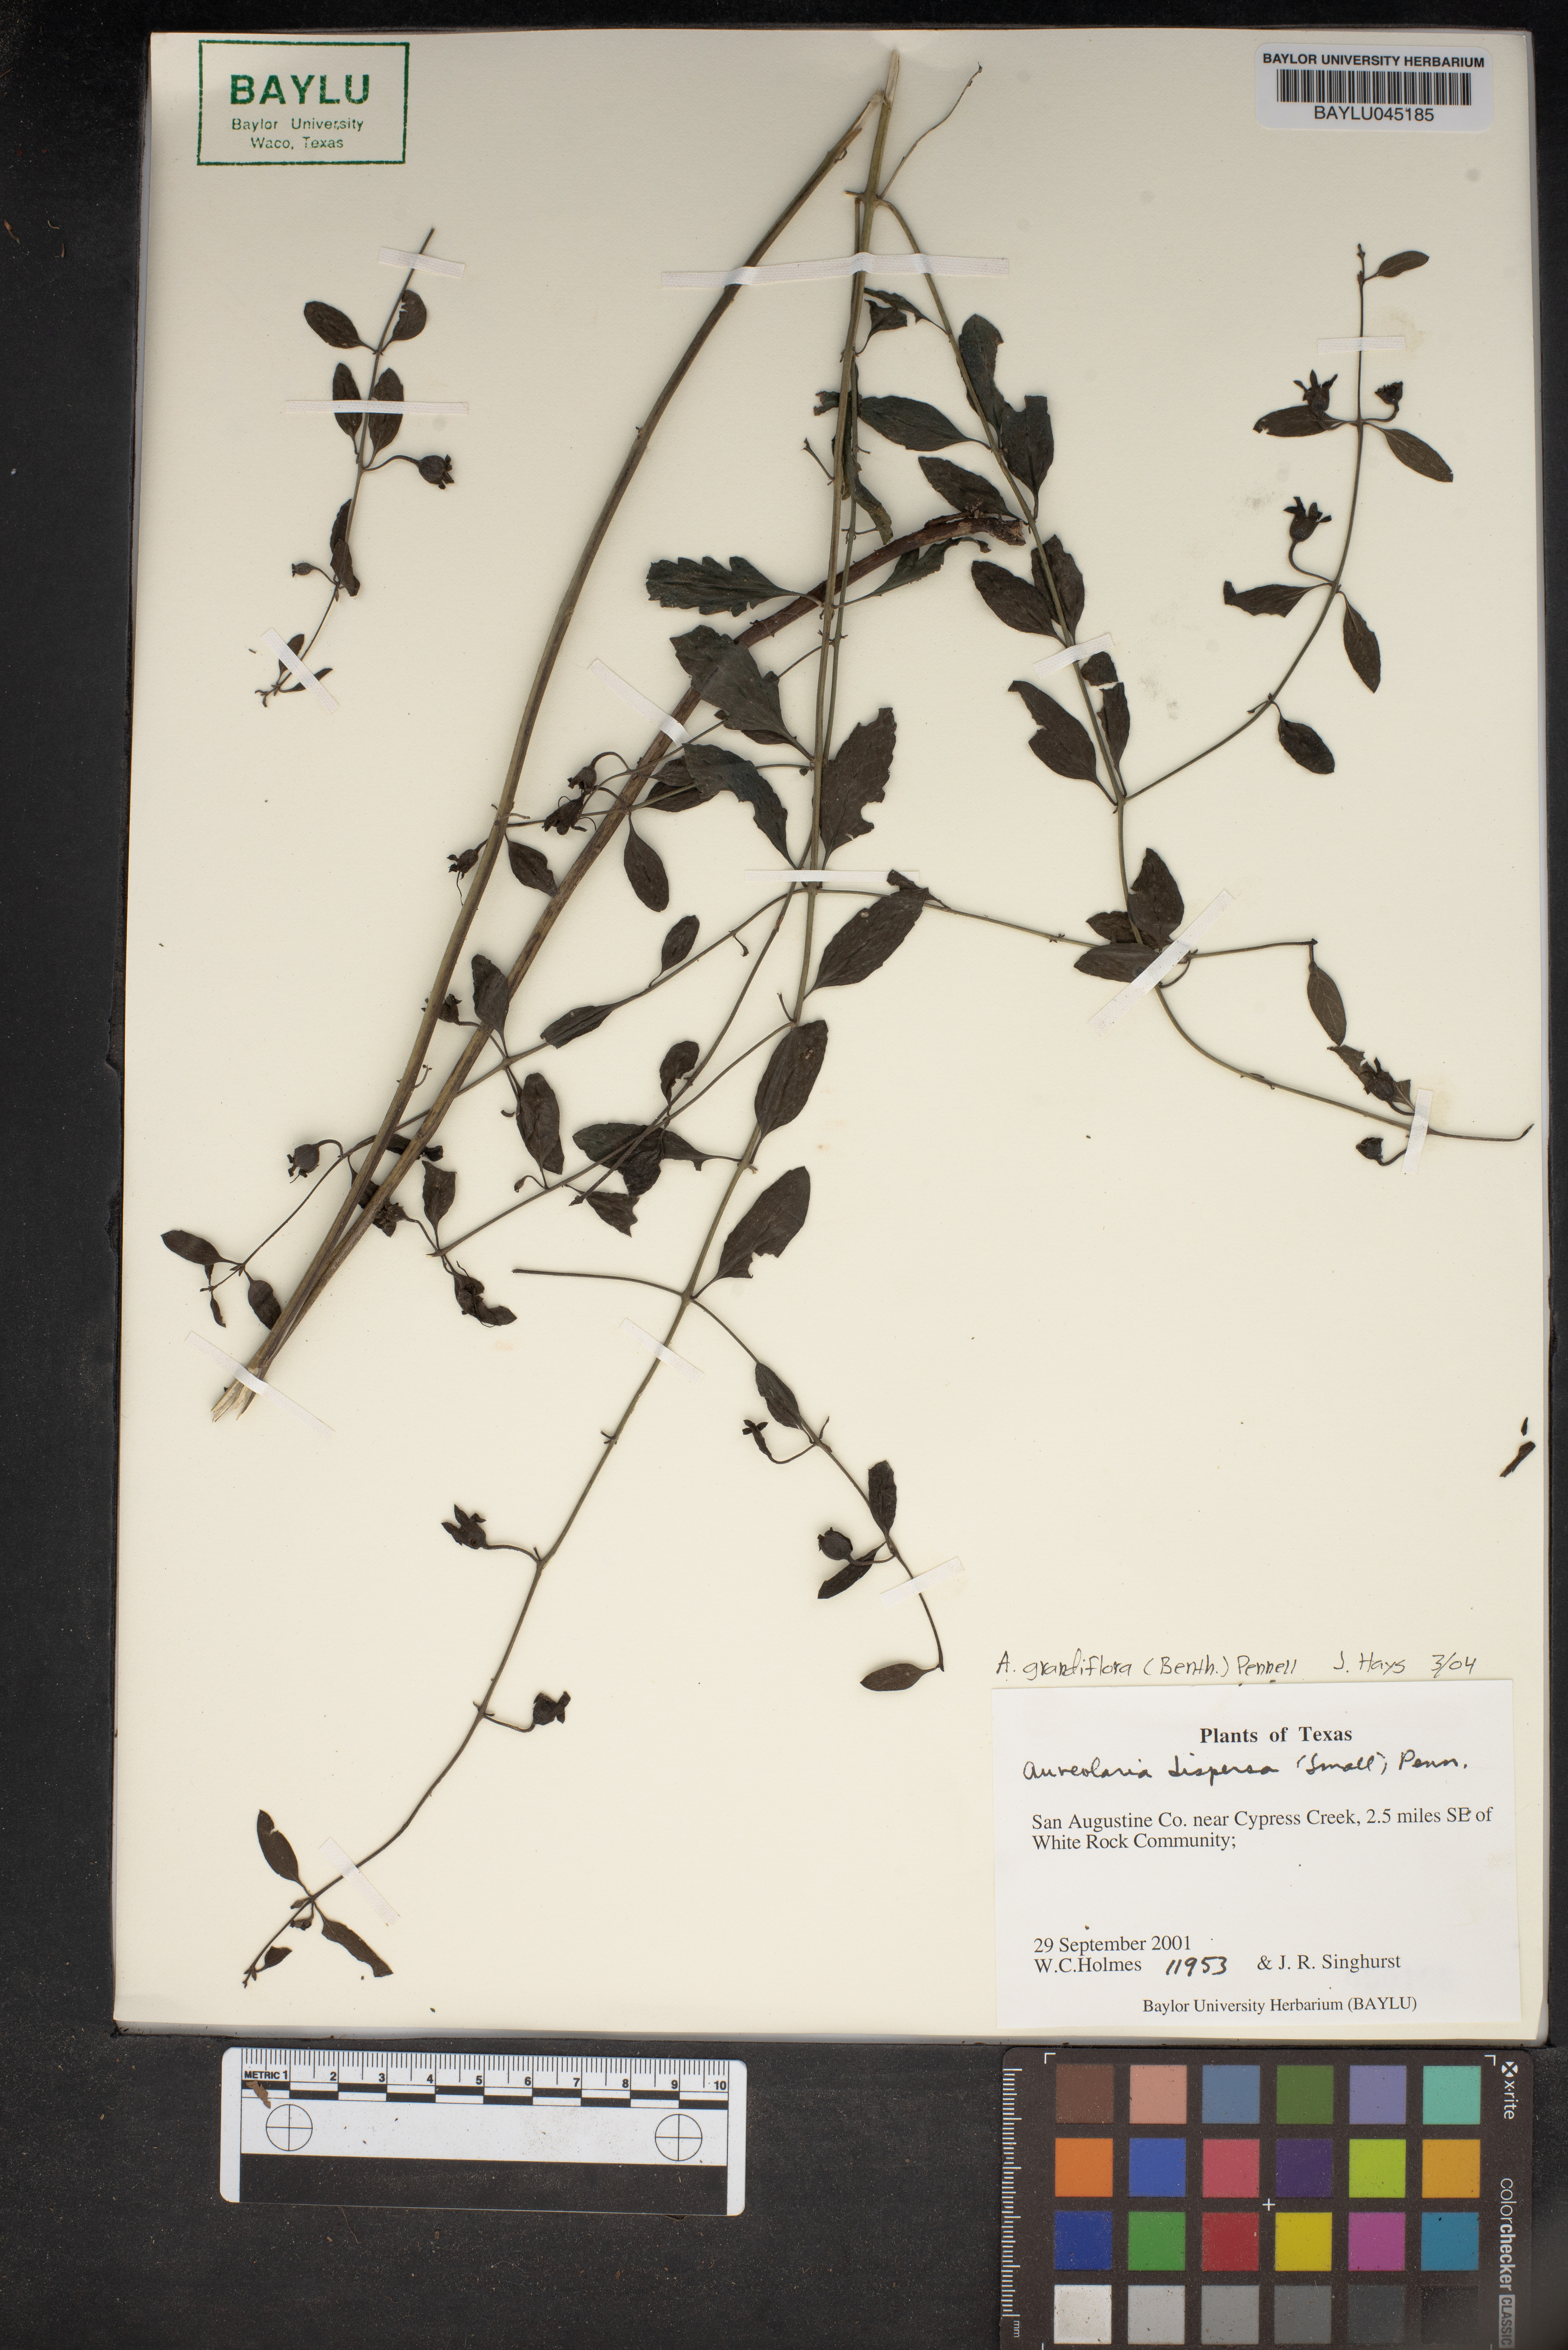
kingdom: Plantae
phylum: Tracheophyta
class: Magnoliopsida
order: Lamiales
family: Orobanchaceae
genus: Aureolaria
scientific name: Aureolaria virginica
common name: Downy false foxglove
